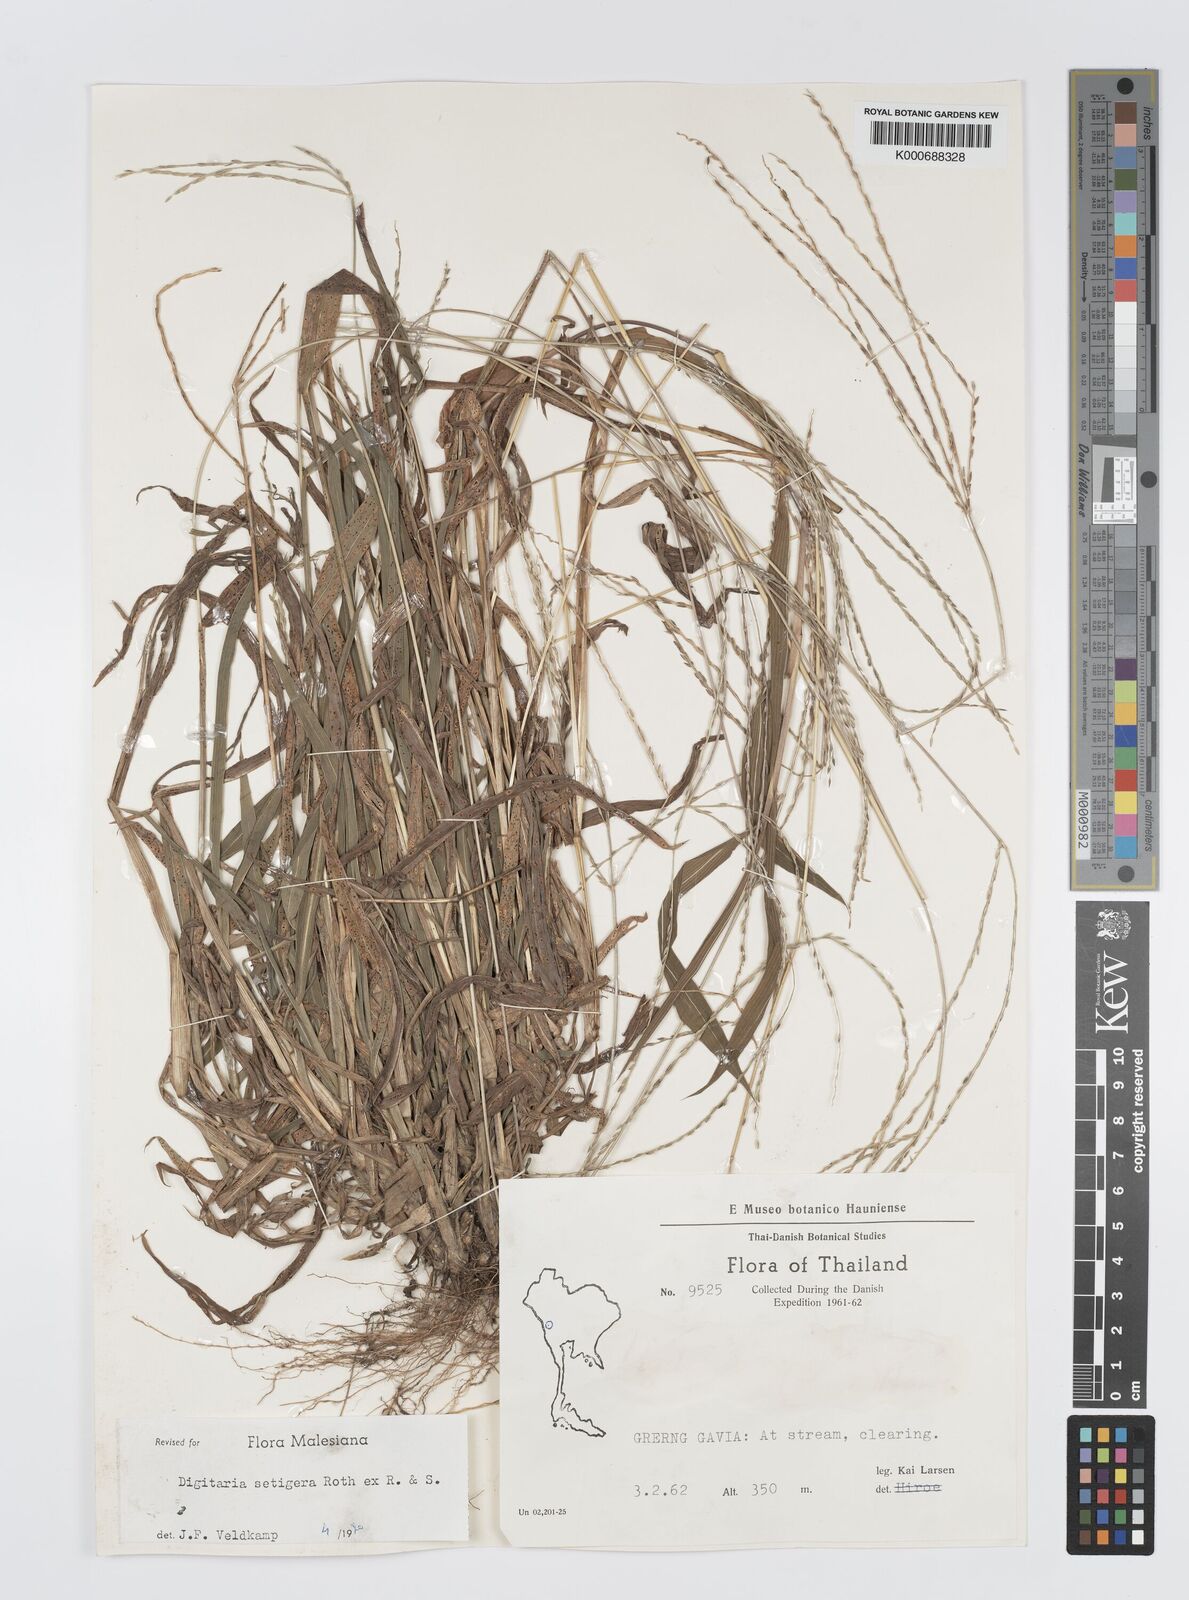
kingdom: Plantae
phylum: Tracheophyta
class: Liliopsida
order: Poales
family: Poaceae
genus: Digitaria
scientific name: Digitaria
